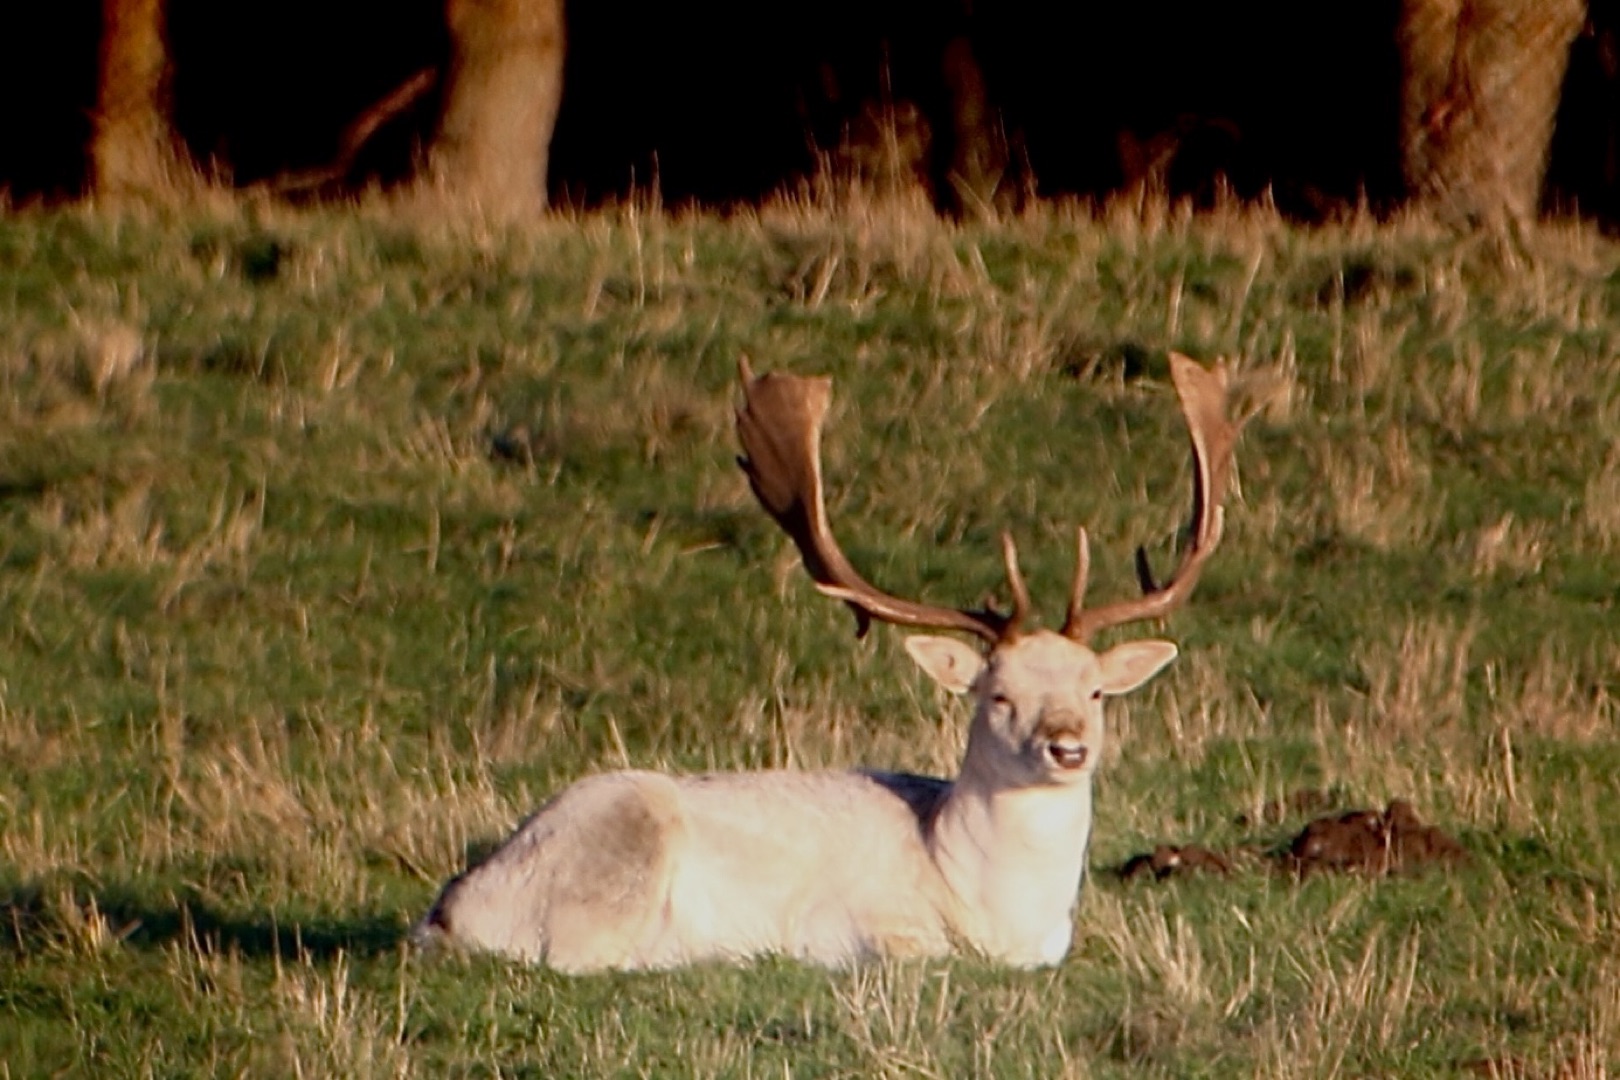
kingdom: Animalia
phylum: Chordata
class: Mammalia
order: Artiodactyla
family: Cervidae
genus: Dama
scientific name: Dama dama
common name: Dådyr
